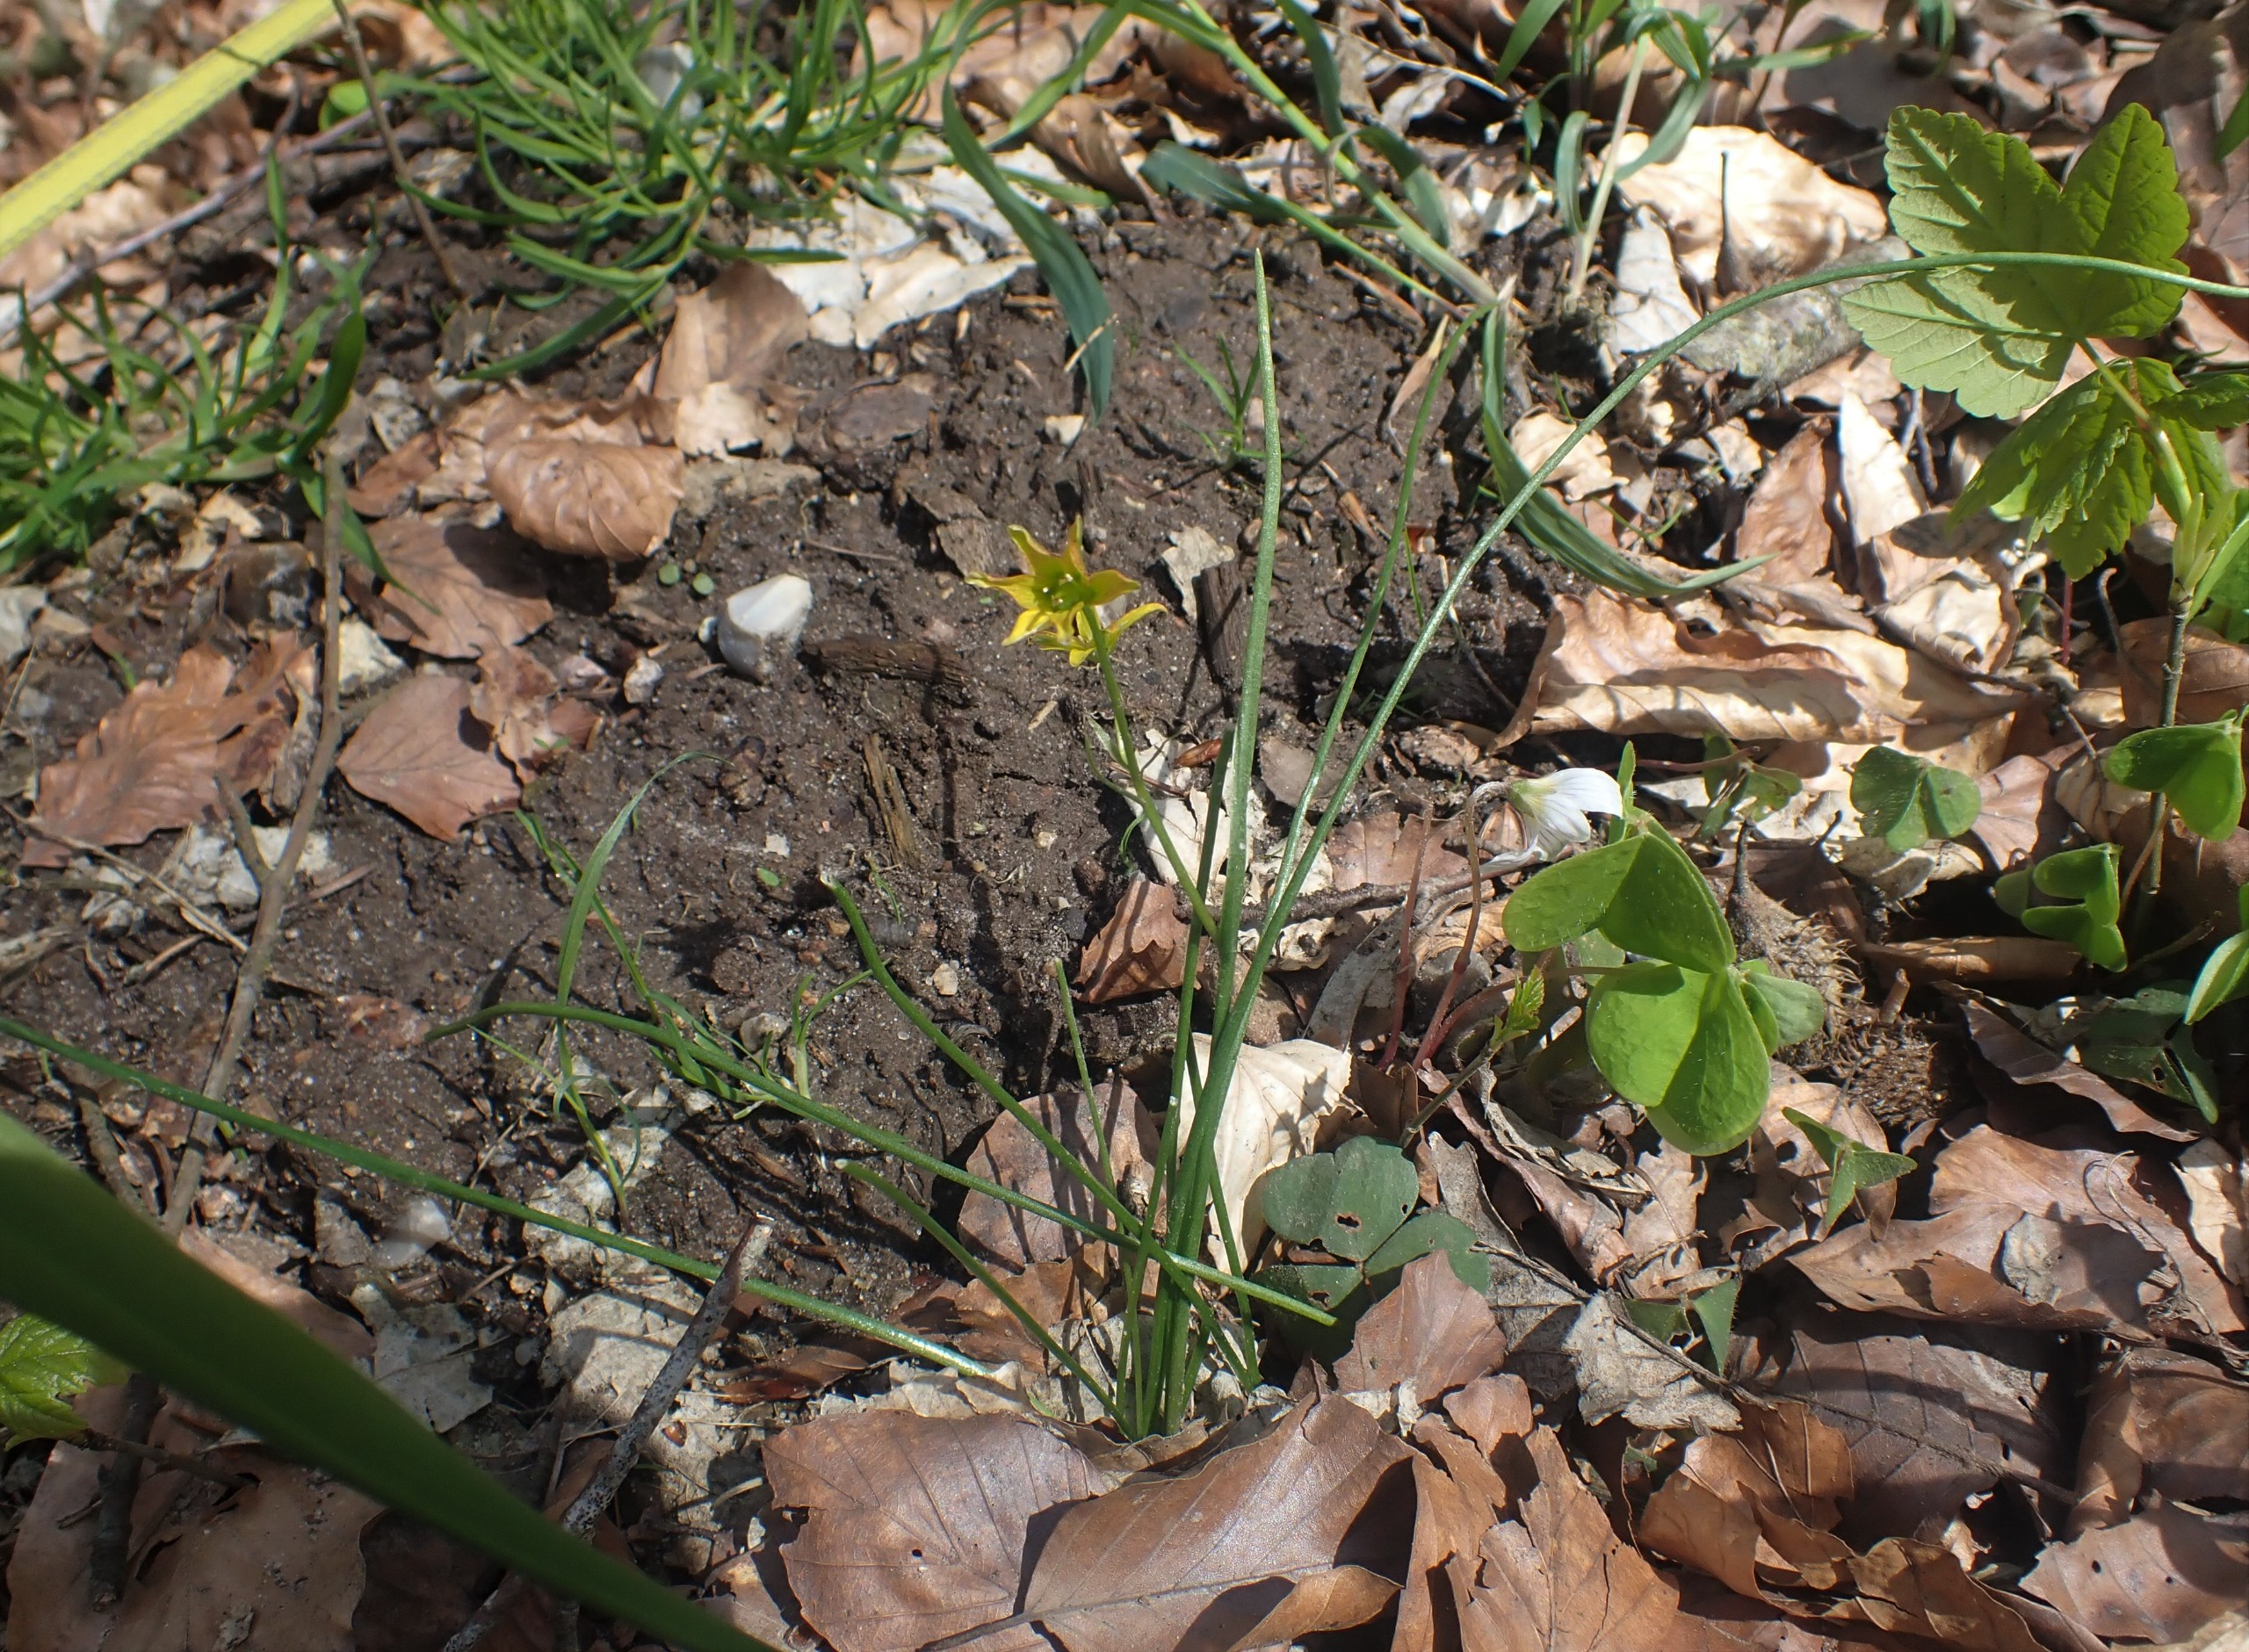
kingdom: Plantae
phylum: Tracheophyta
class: Liliopsida
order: Liliales
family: Liliaceae
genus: Gagea
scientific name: Gagea spathacea
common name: Hylster-guldstjerne
